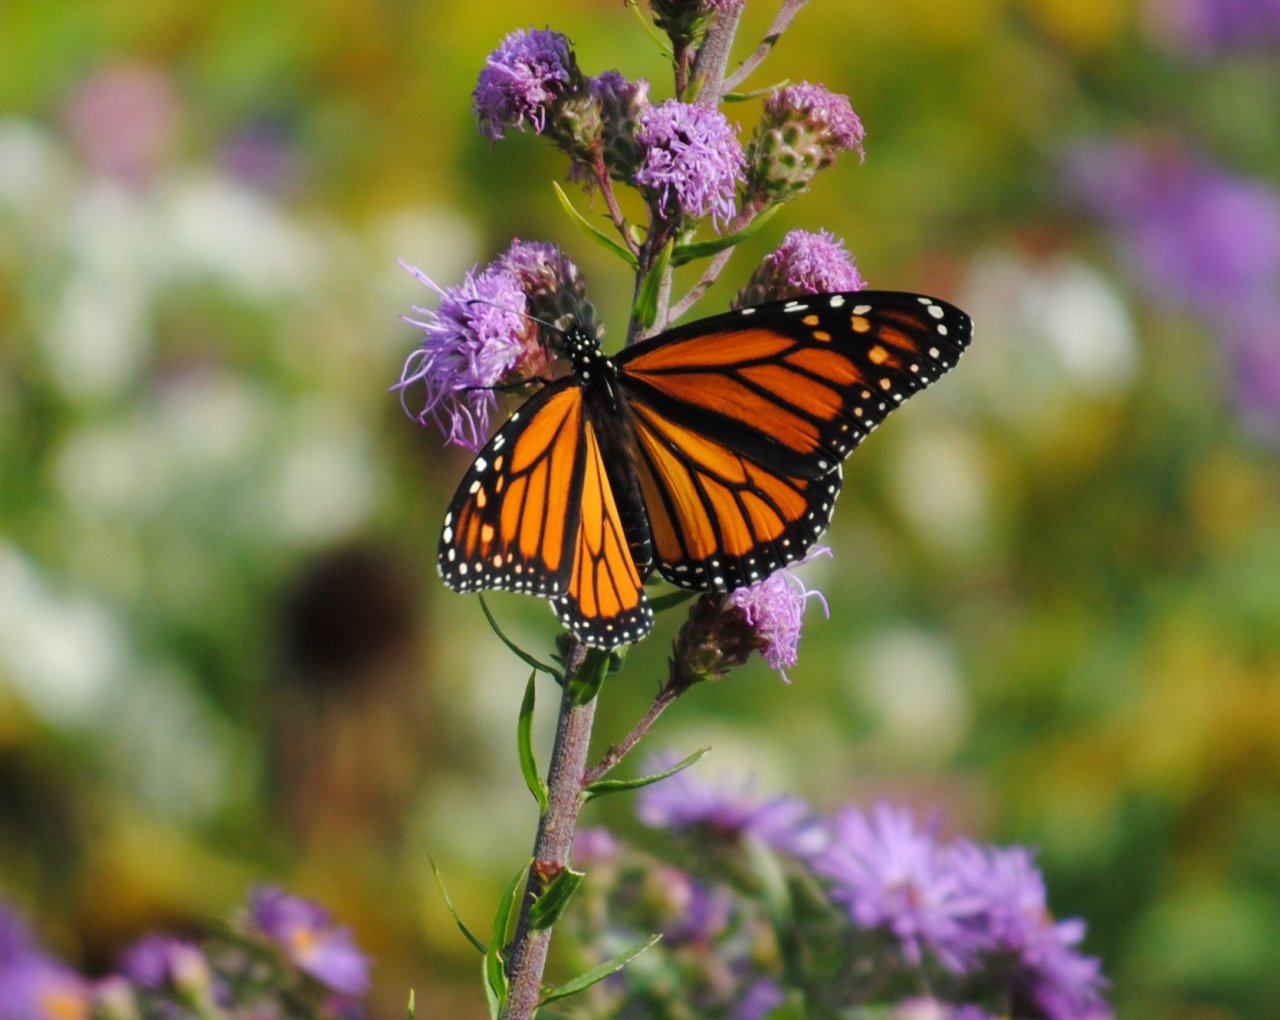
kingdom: Animalia
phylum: Arthropoda
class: Insecta
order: Lepidoptera
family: Nymphalidae
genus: Danaus
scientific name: Danaus plexippus
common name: Monarch
